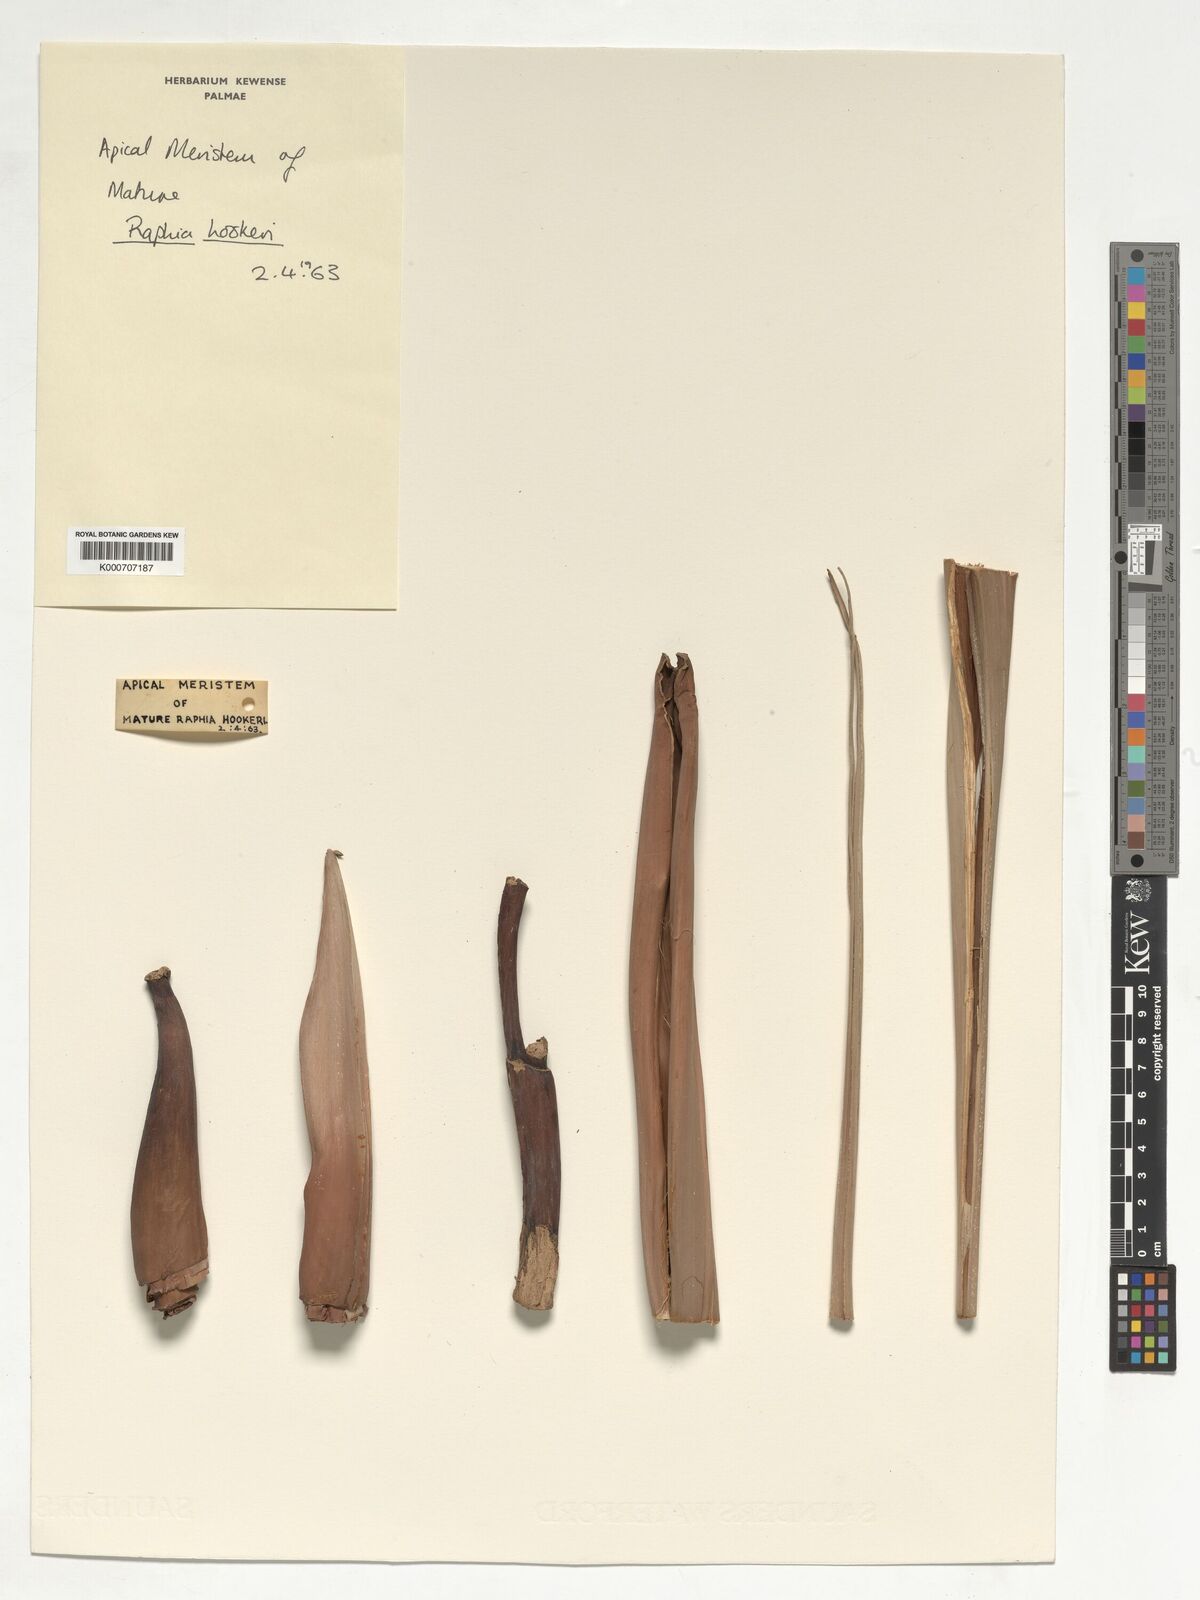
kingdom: Plantae
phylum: Tracheophyta
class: Liliopsida
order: Arecales
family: Arecaceae
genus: Raphia
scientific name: Raphia hookeri
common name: Wine palm
